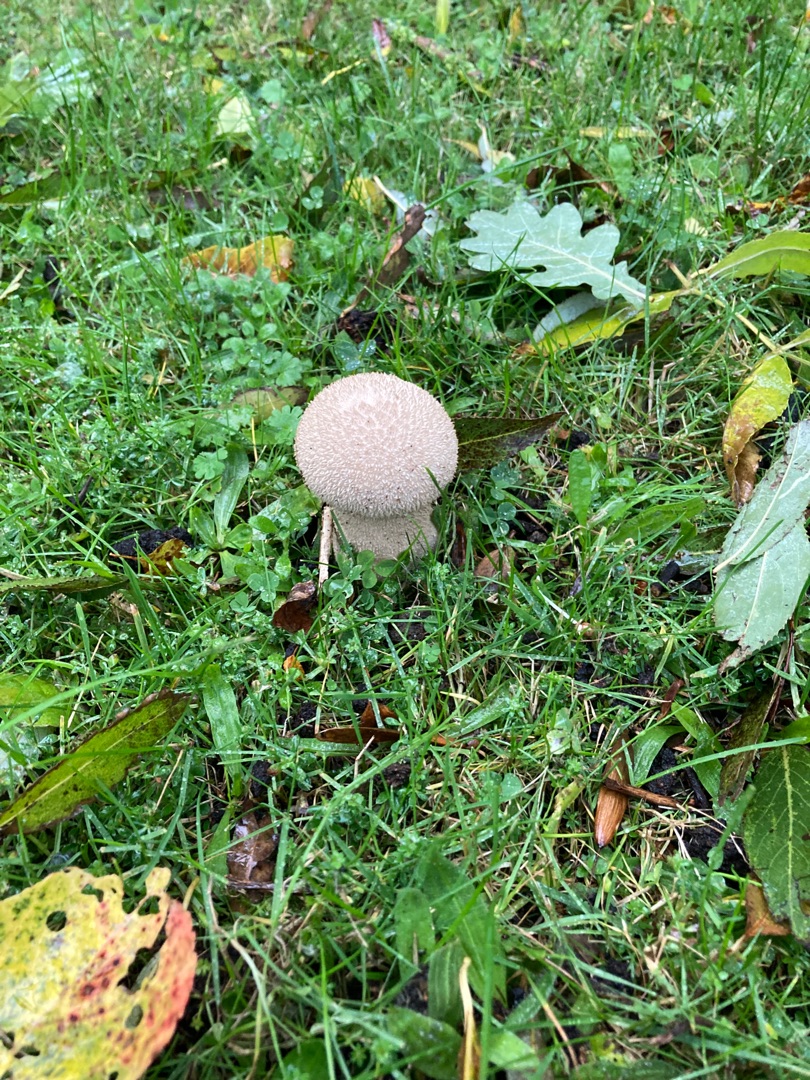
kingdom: Fungi
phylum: Basidiomycota
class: Agaricomycetes
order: Agaricales
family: Lycoperdaceae
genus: Lycoperdon
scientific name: Lycoperdon perlatum
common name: Krystal-støvbold
